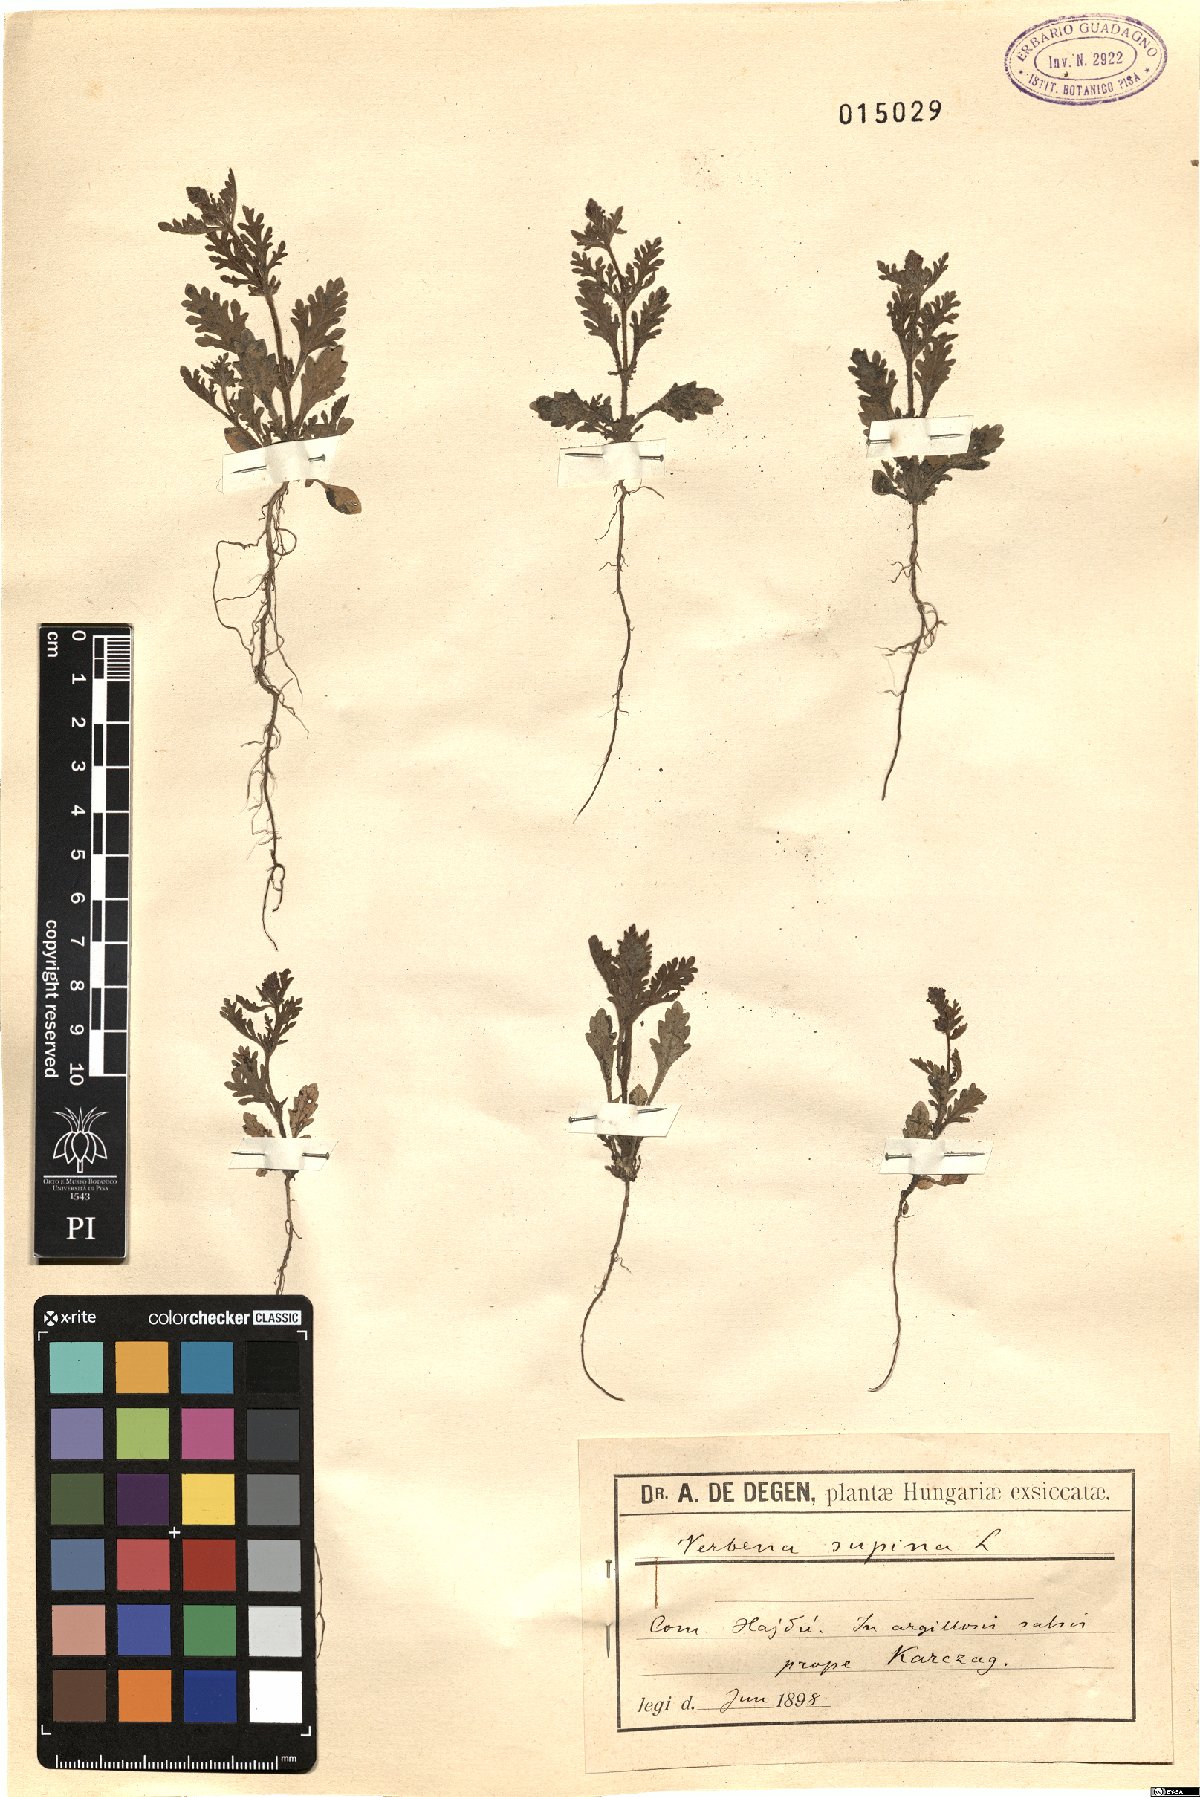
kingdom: Plantae
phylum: Tracheophyta
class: Magnoliopsida
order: Lamiales
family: Verbenaceae
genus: Verbena
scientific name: Verbena supina
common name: Trailing vervain
